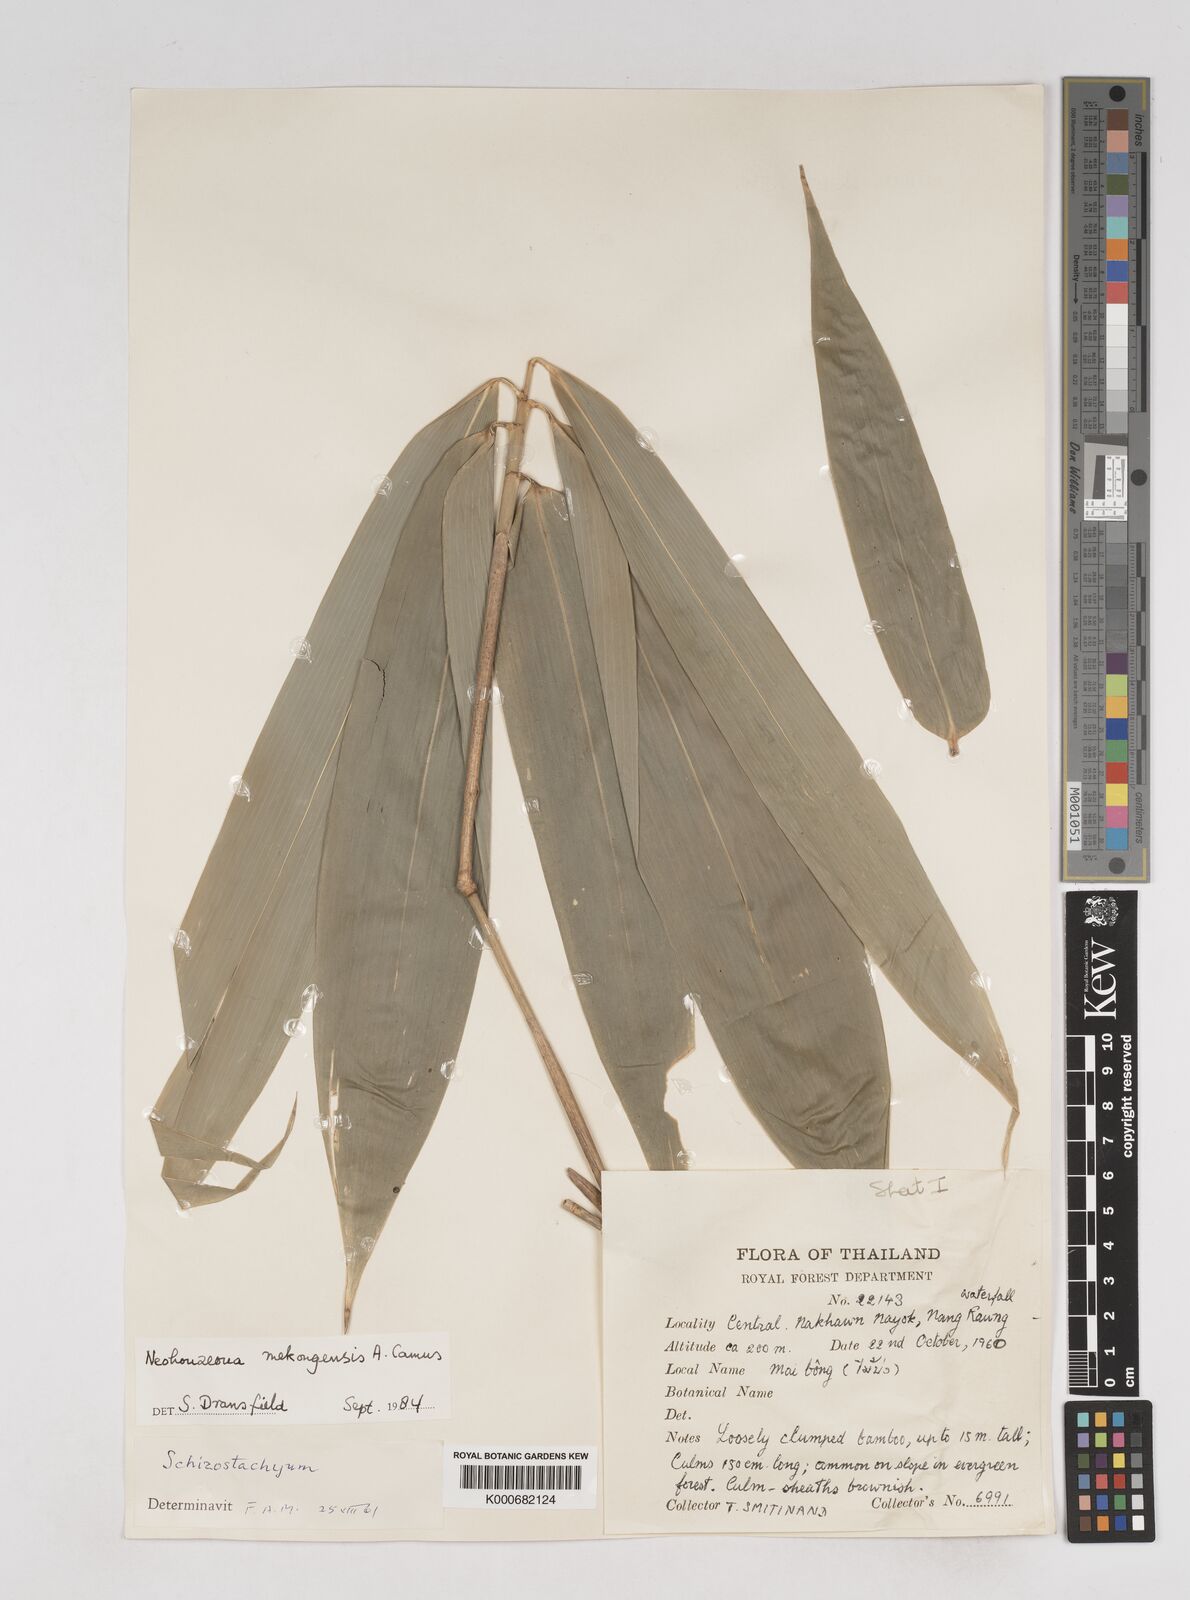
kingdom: Plantae
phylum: Tracheophyta
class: Liliopsida
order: Poales
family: Poaceae
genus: Schizostachyum
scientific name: Schizostachyum mekongensis
